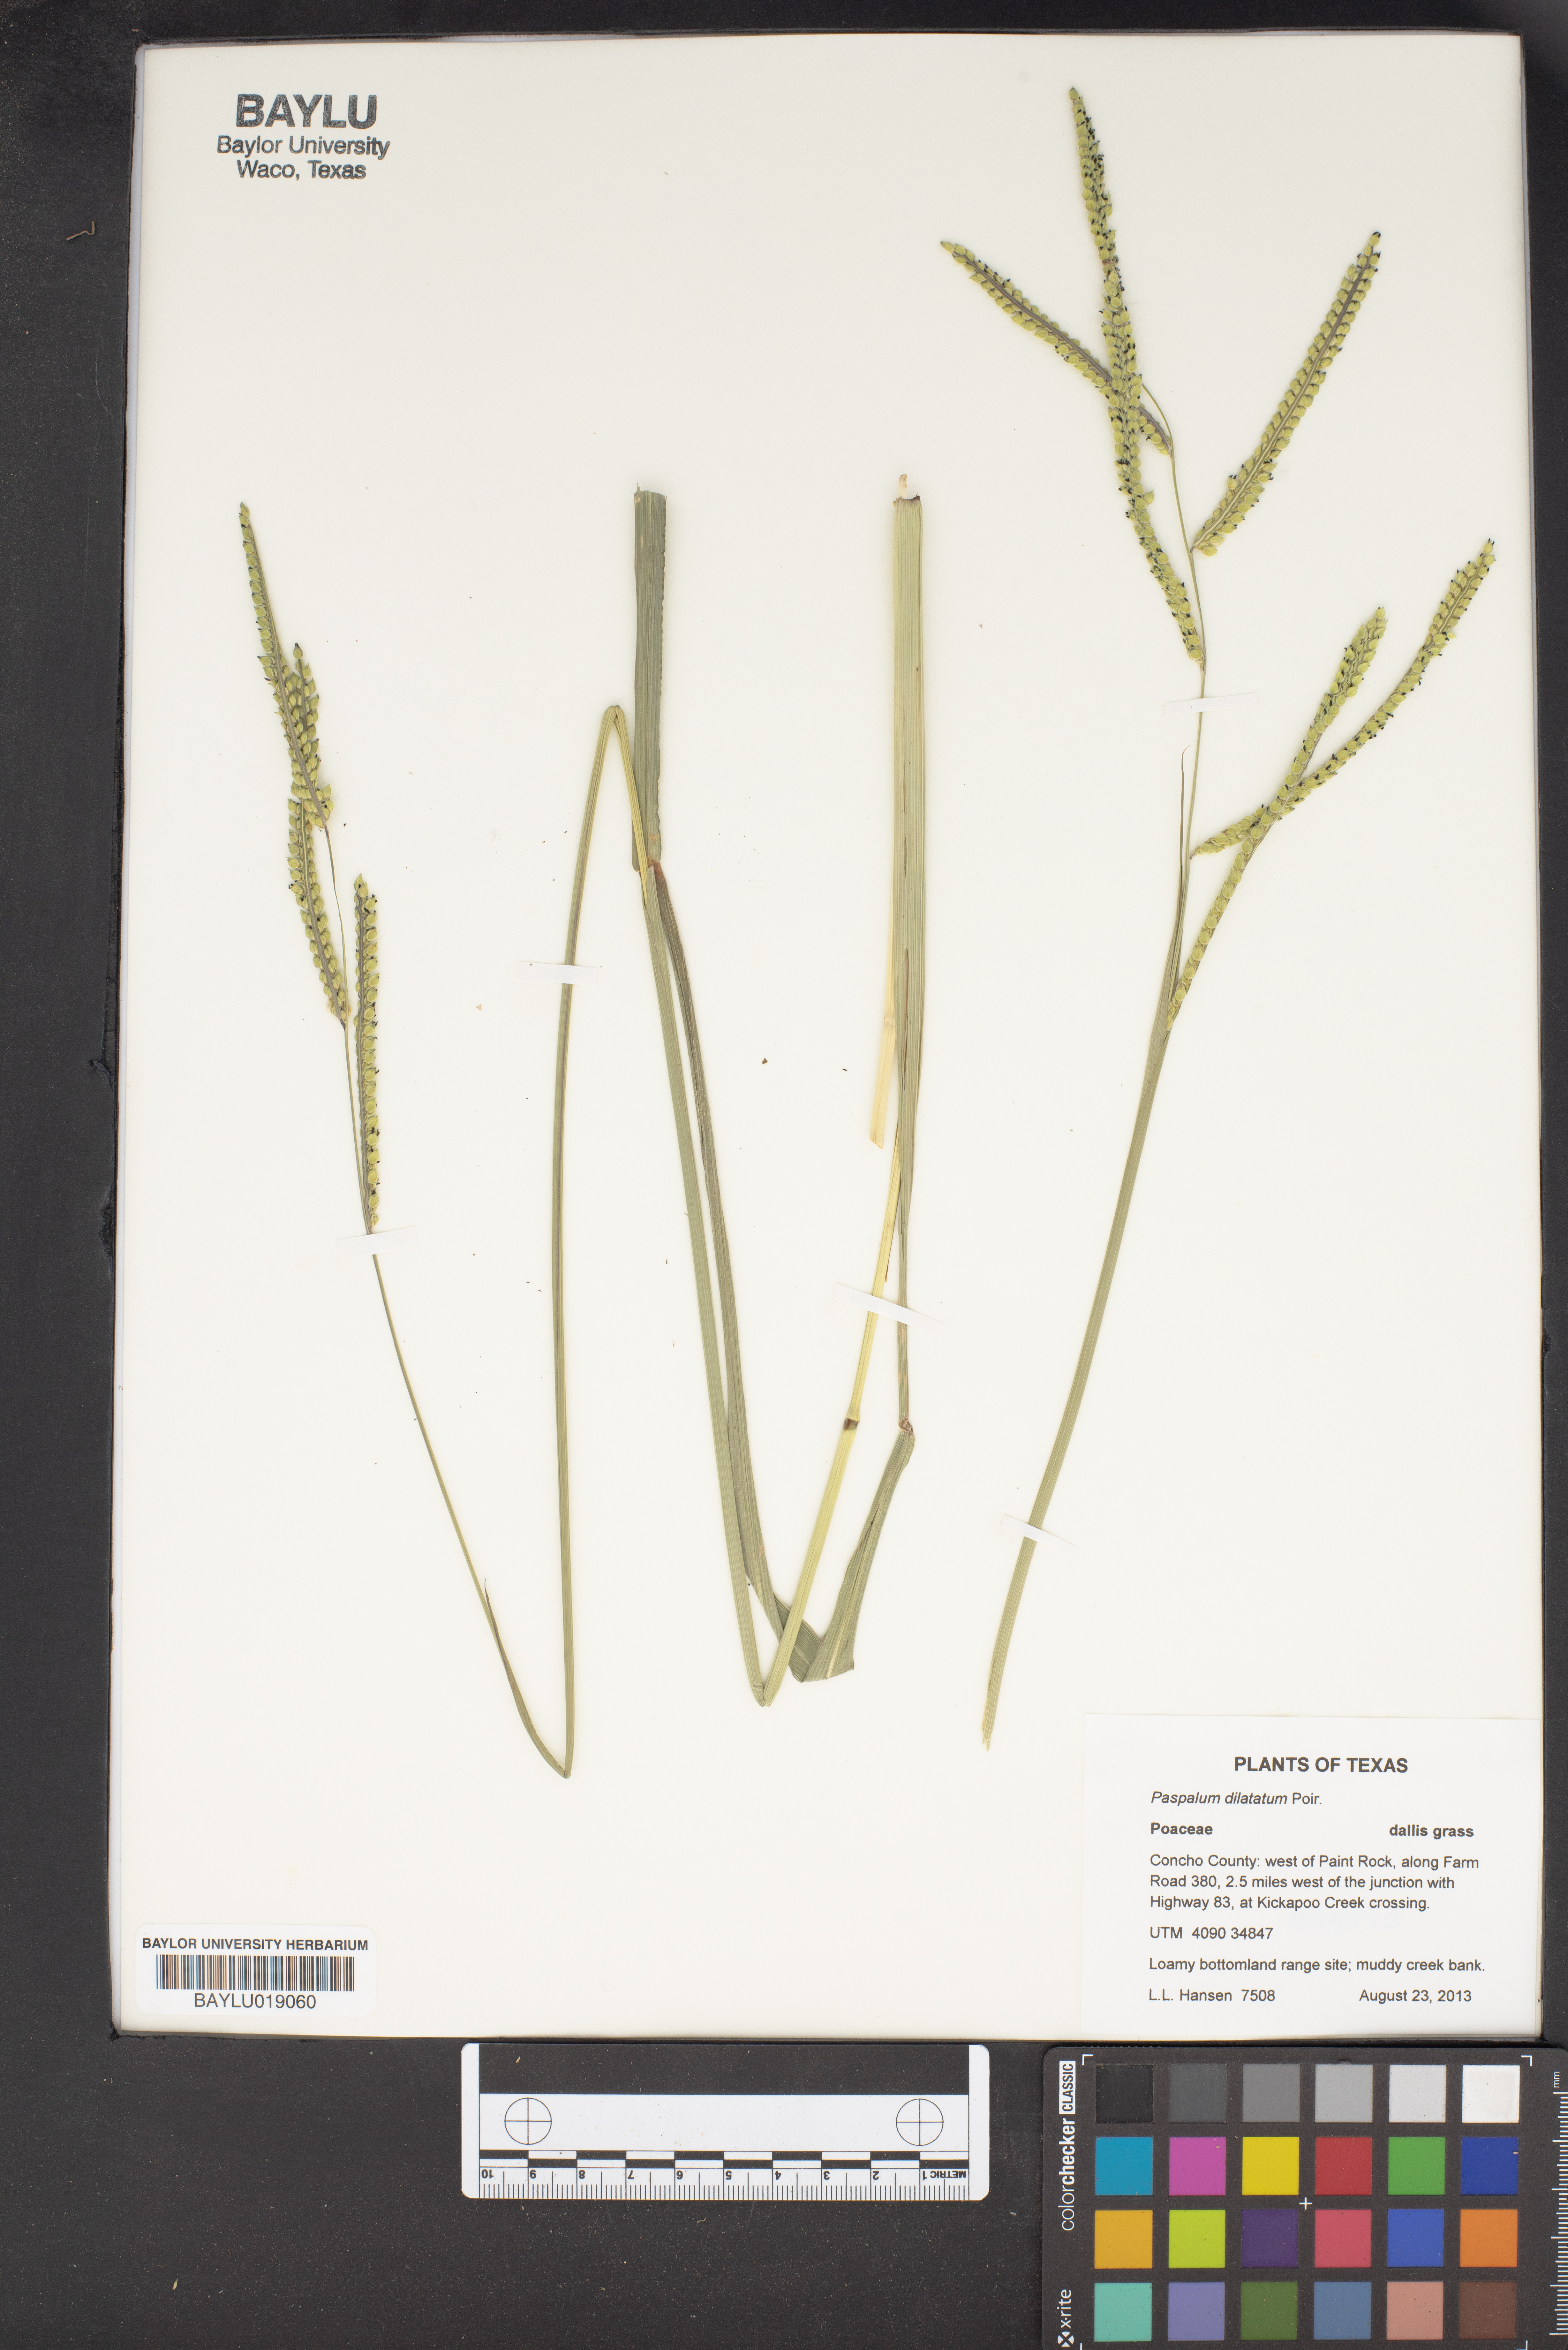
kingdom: Plantae
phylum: Tracheophyta
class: Liliopsida
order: Poales
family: Poaceae
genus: Paspalum
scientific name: Paspalum dilatatum
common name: Dallisgrass
